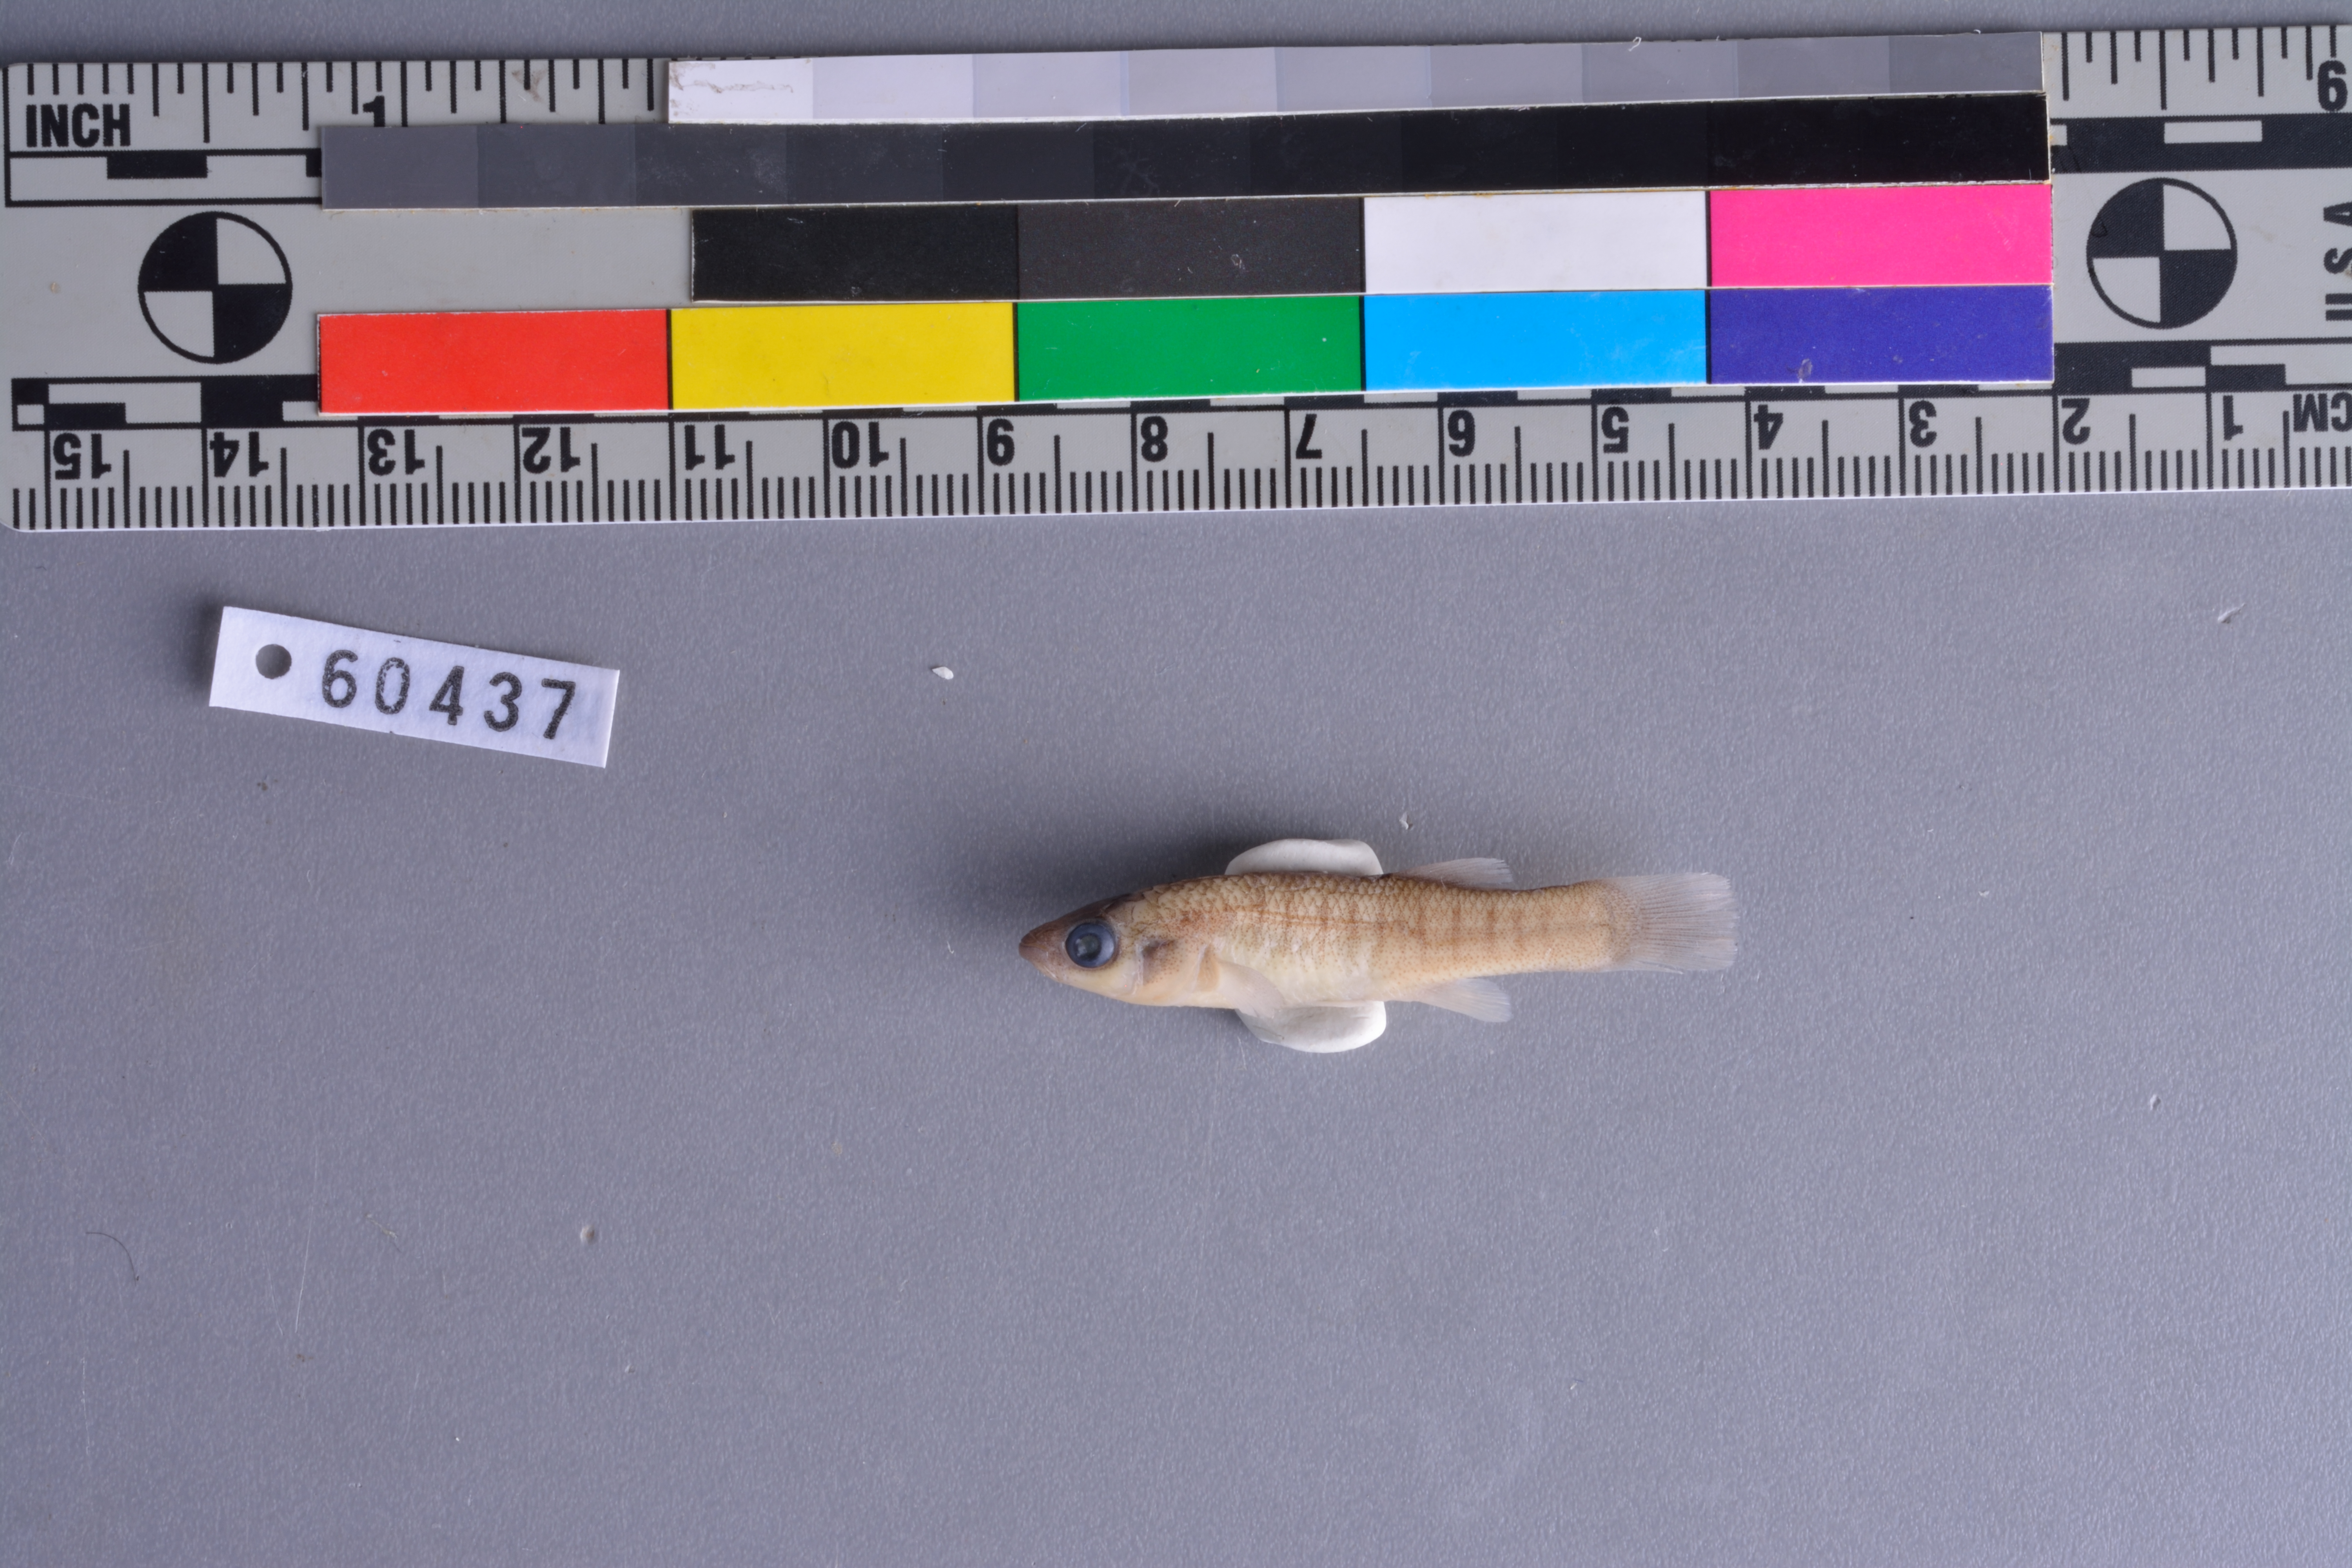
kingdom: Animalia
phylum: Chordata
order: Cyprinodontiformes
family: Fundulidae
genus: Fundulus
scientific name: Fundulus grandis
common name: Gulf killifish
